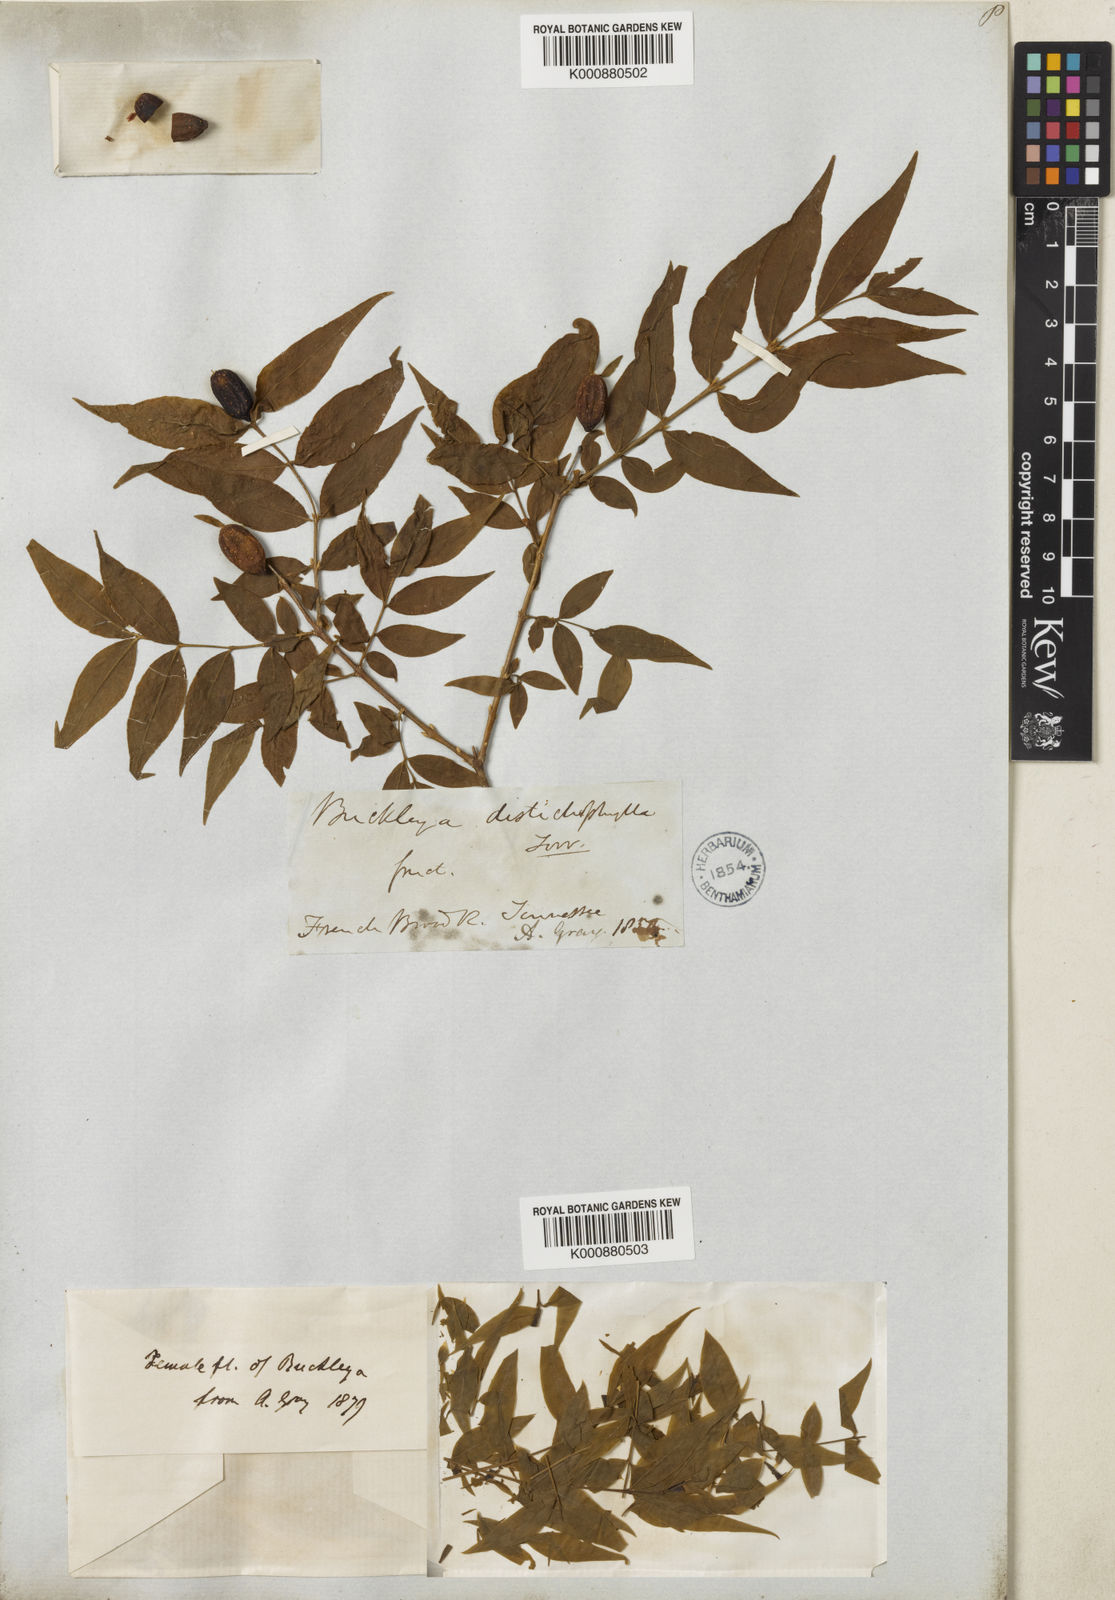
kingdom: Plantae
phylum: Tracheophyta
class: Magnoliopsida
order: Santalales
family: Thesiaceae
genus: Buckleya
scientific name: Buckleya distichophylla
